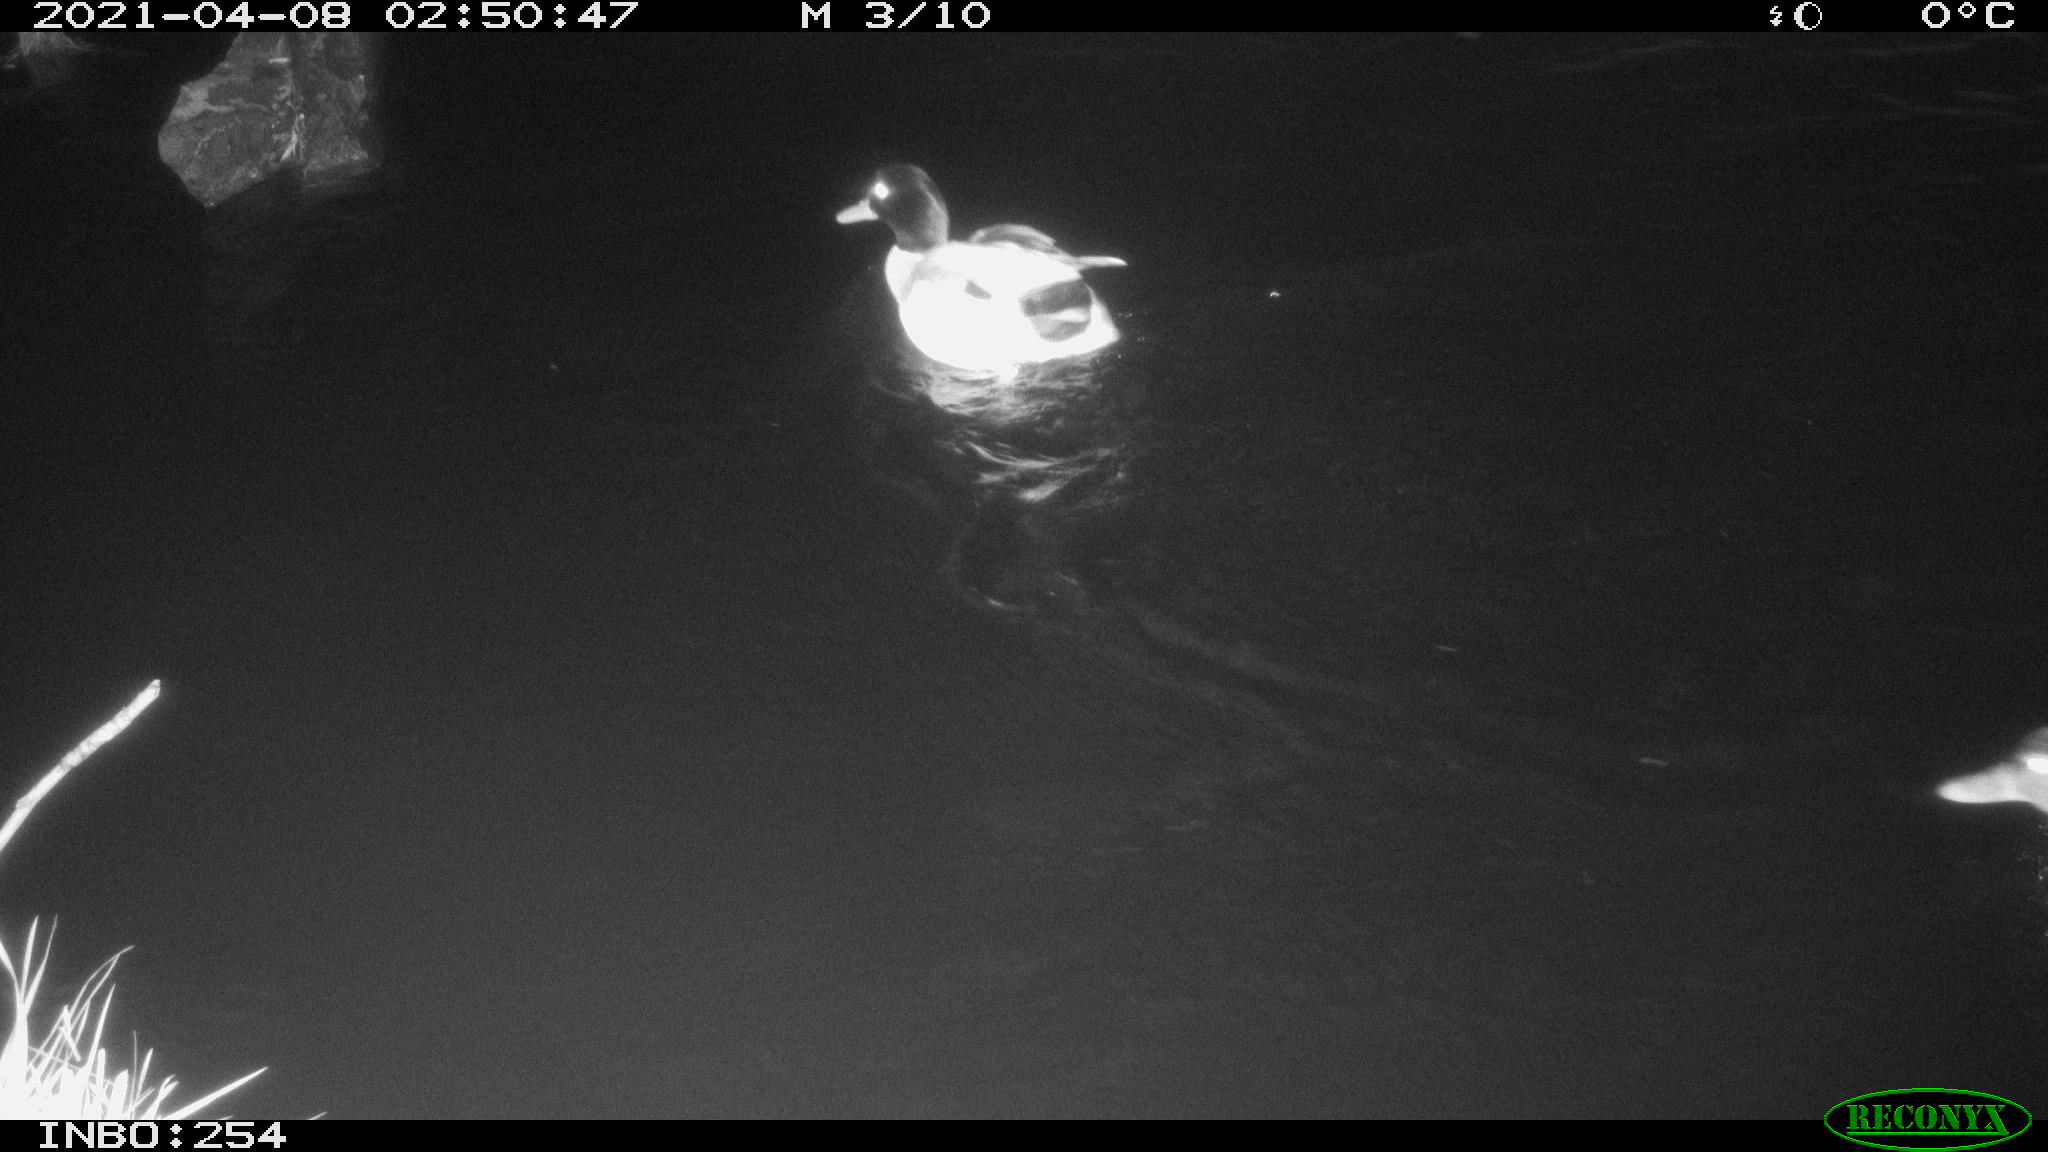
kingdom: Animalia
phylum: Chordata
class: Aves
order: Anseriformes
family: Anatidae
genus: Anas
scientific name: Anas
